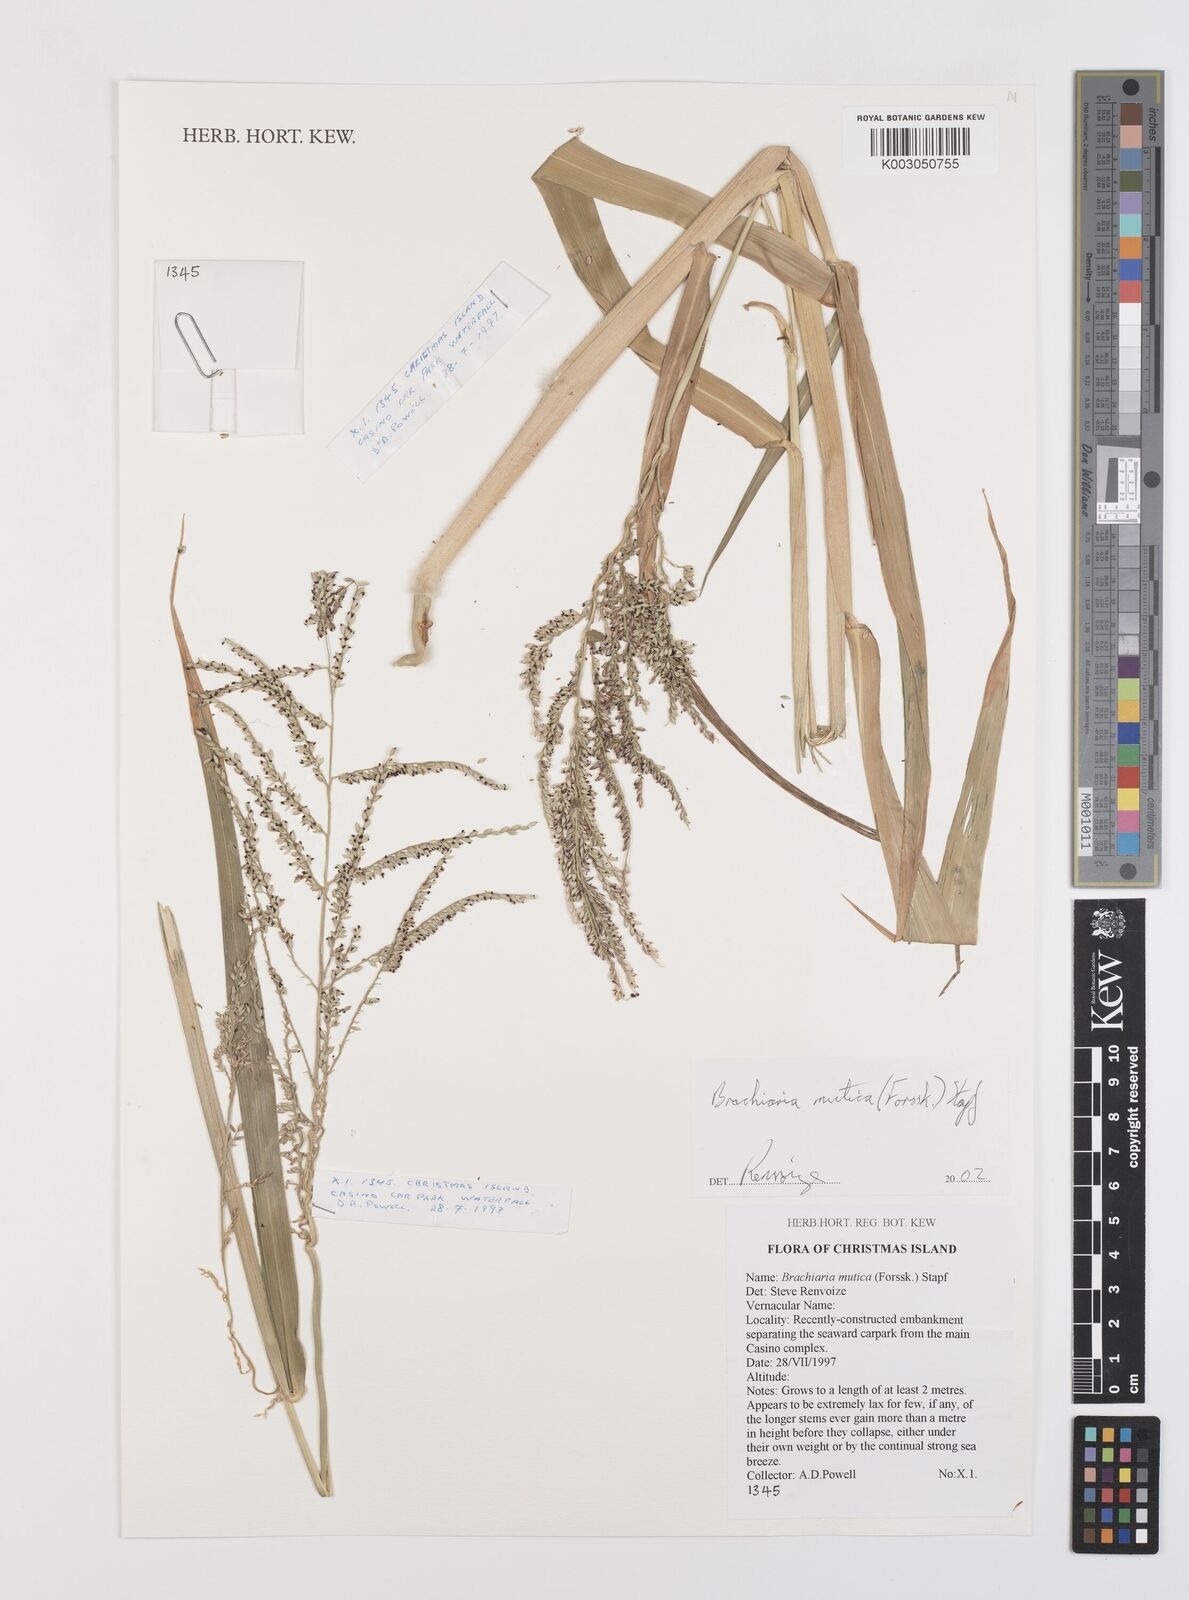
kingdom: Plantae
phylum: Tracheophyta
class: Liliopsida
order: Poales
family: Poaceae
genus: Urochloa
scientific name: Urochloa mutica
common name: Para grass
